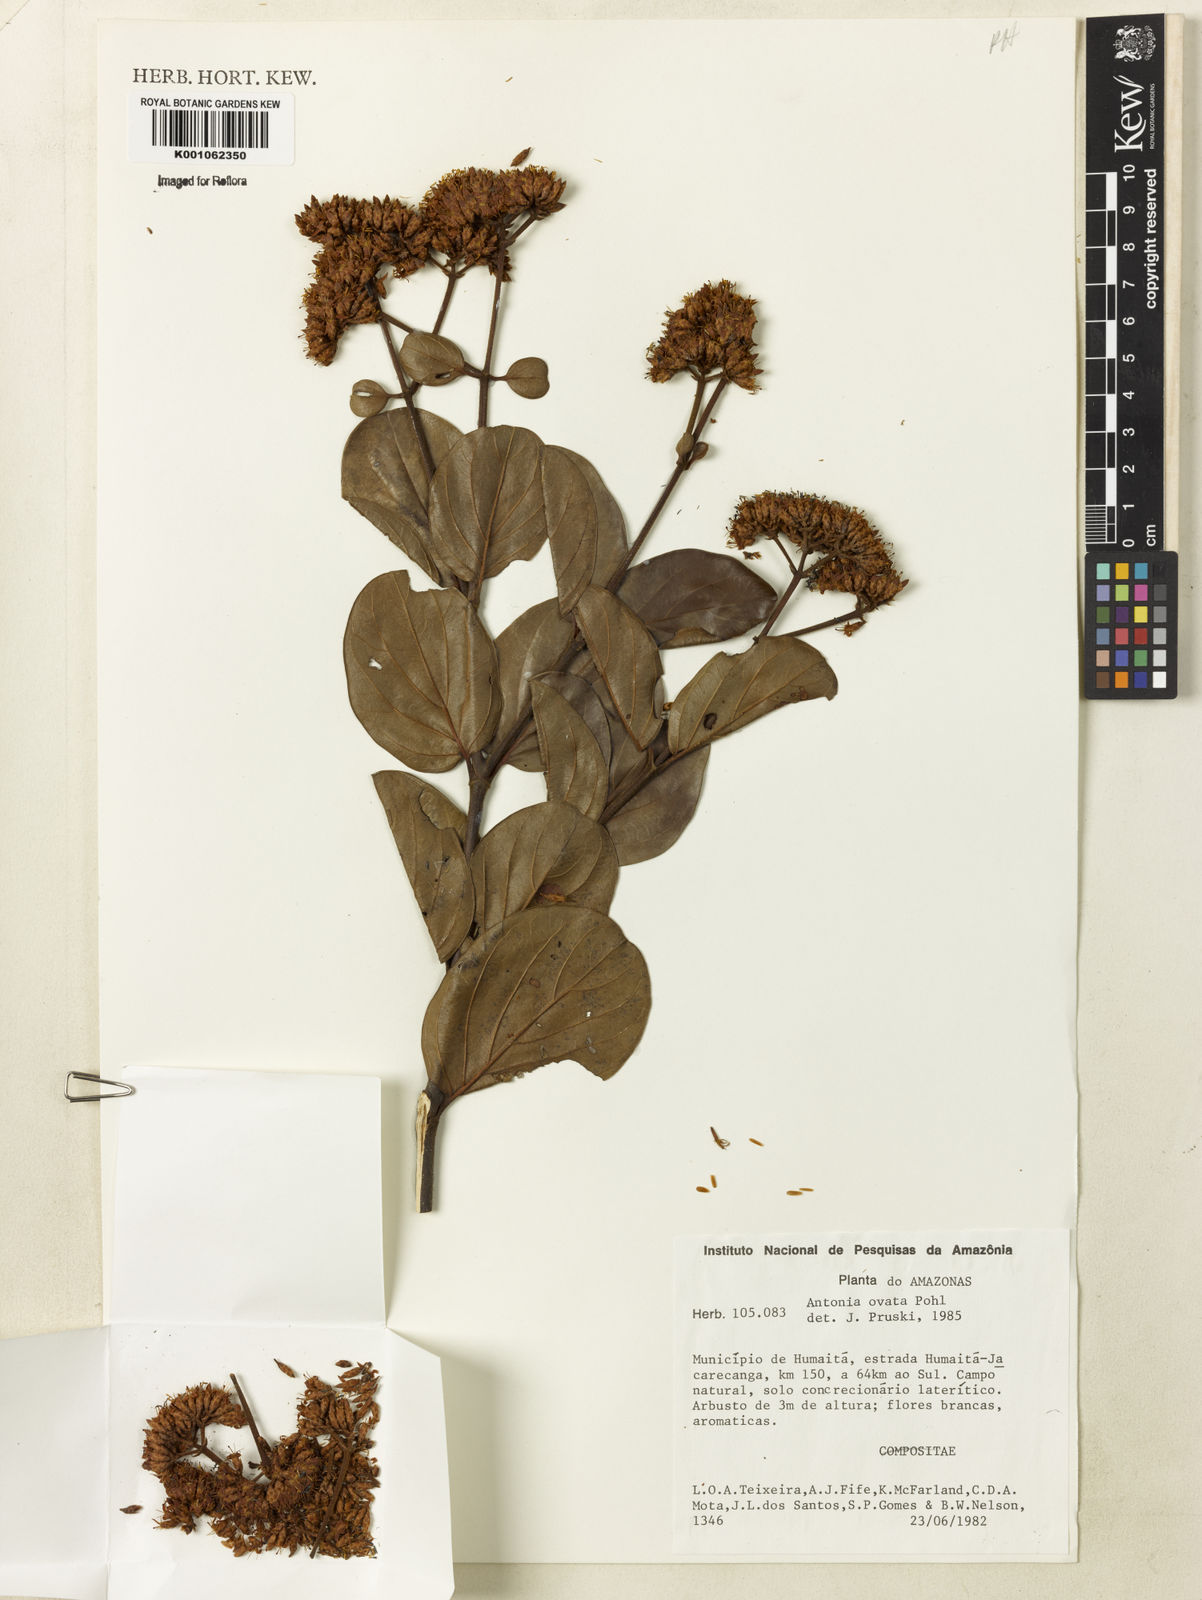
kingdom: Plantae
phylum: Tracheophyta
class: Magnoliopsida
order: Gentianales
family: Loganiaceae
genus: Antonia
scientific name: Antonia ovata
